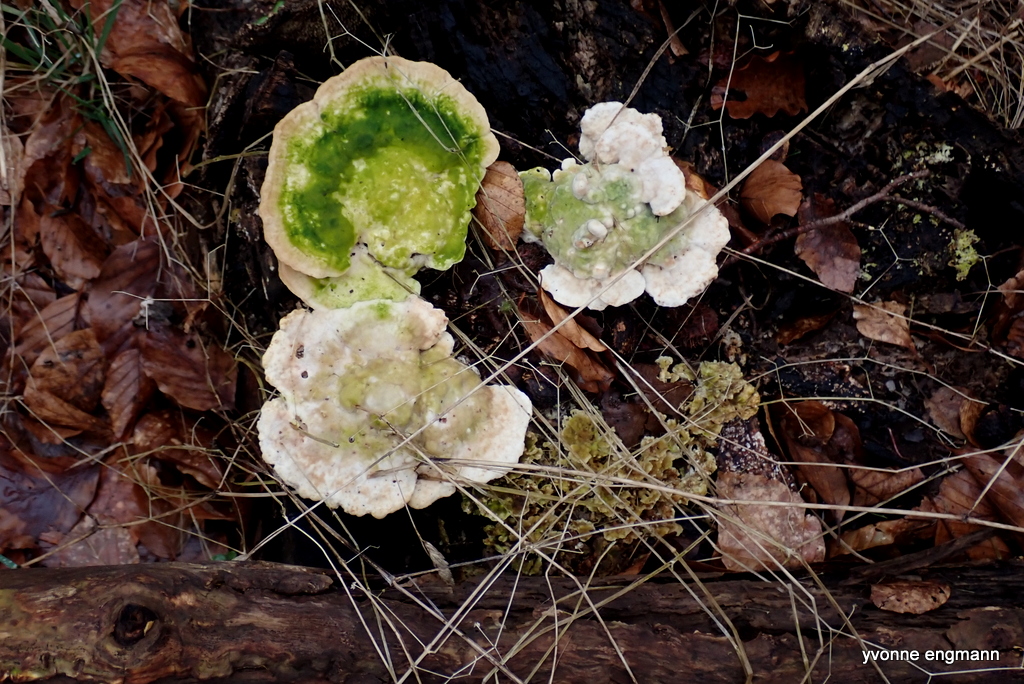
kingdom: Fungi
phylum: Basidiomycota
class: Agaricomycetes
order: Polyporales
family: Polyporaceae
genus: Trametes
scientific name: Trametes gibbosa
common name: puklet læderporesvamp
